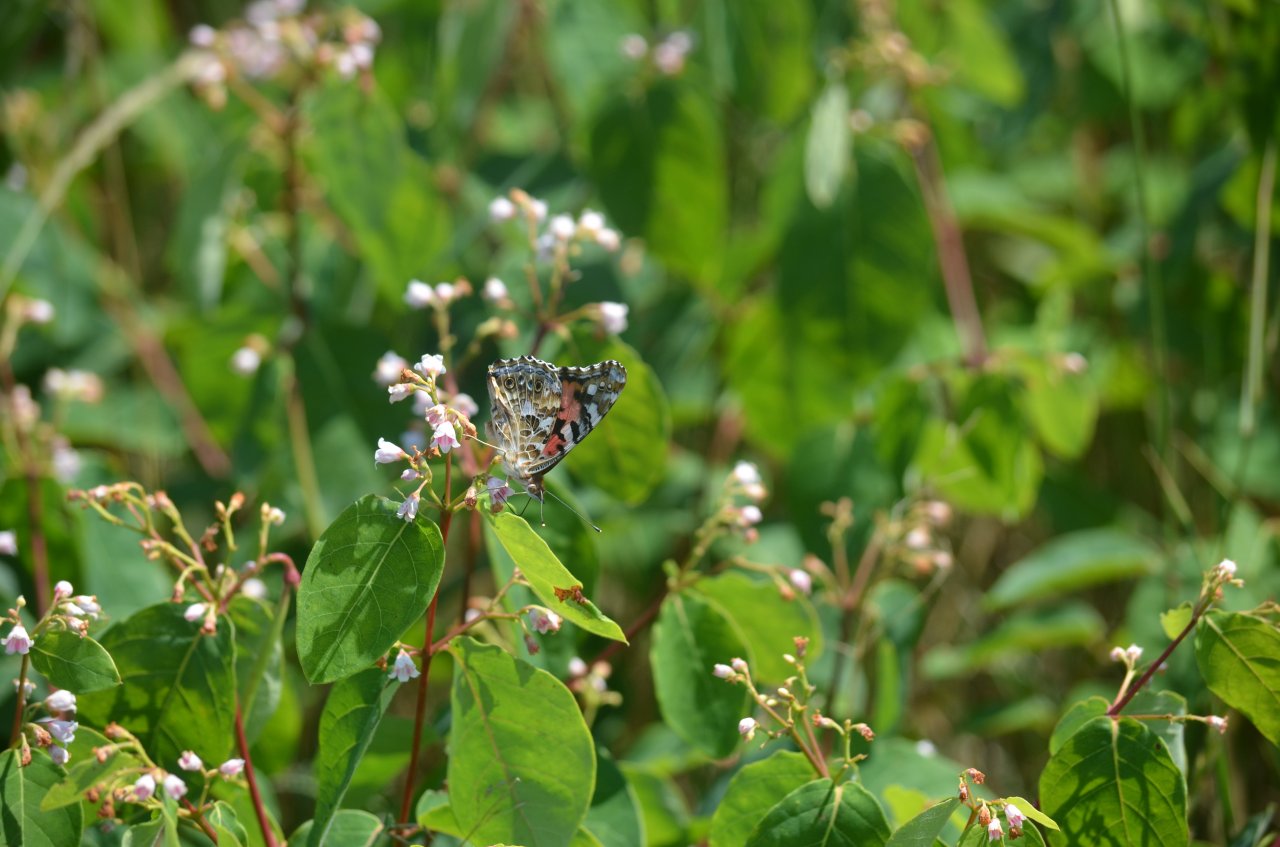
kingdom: Animalia
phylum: Arthropoda
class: Insecta
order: Lepidoptera
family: Nymphalidae
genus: Vanessa
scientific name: Vanessa cardui
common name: Painted Lady
